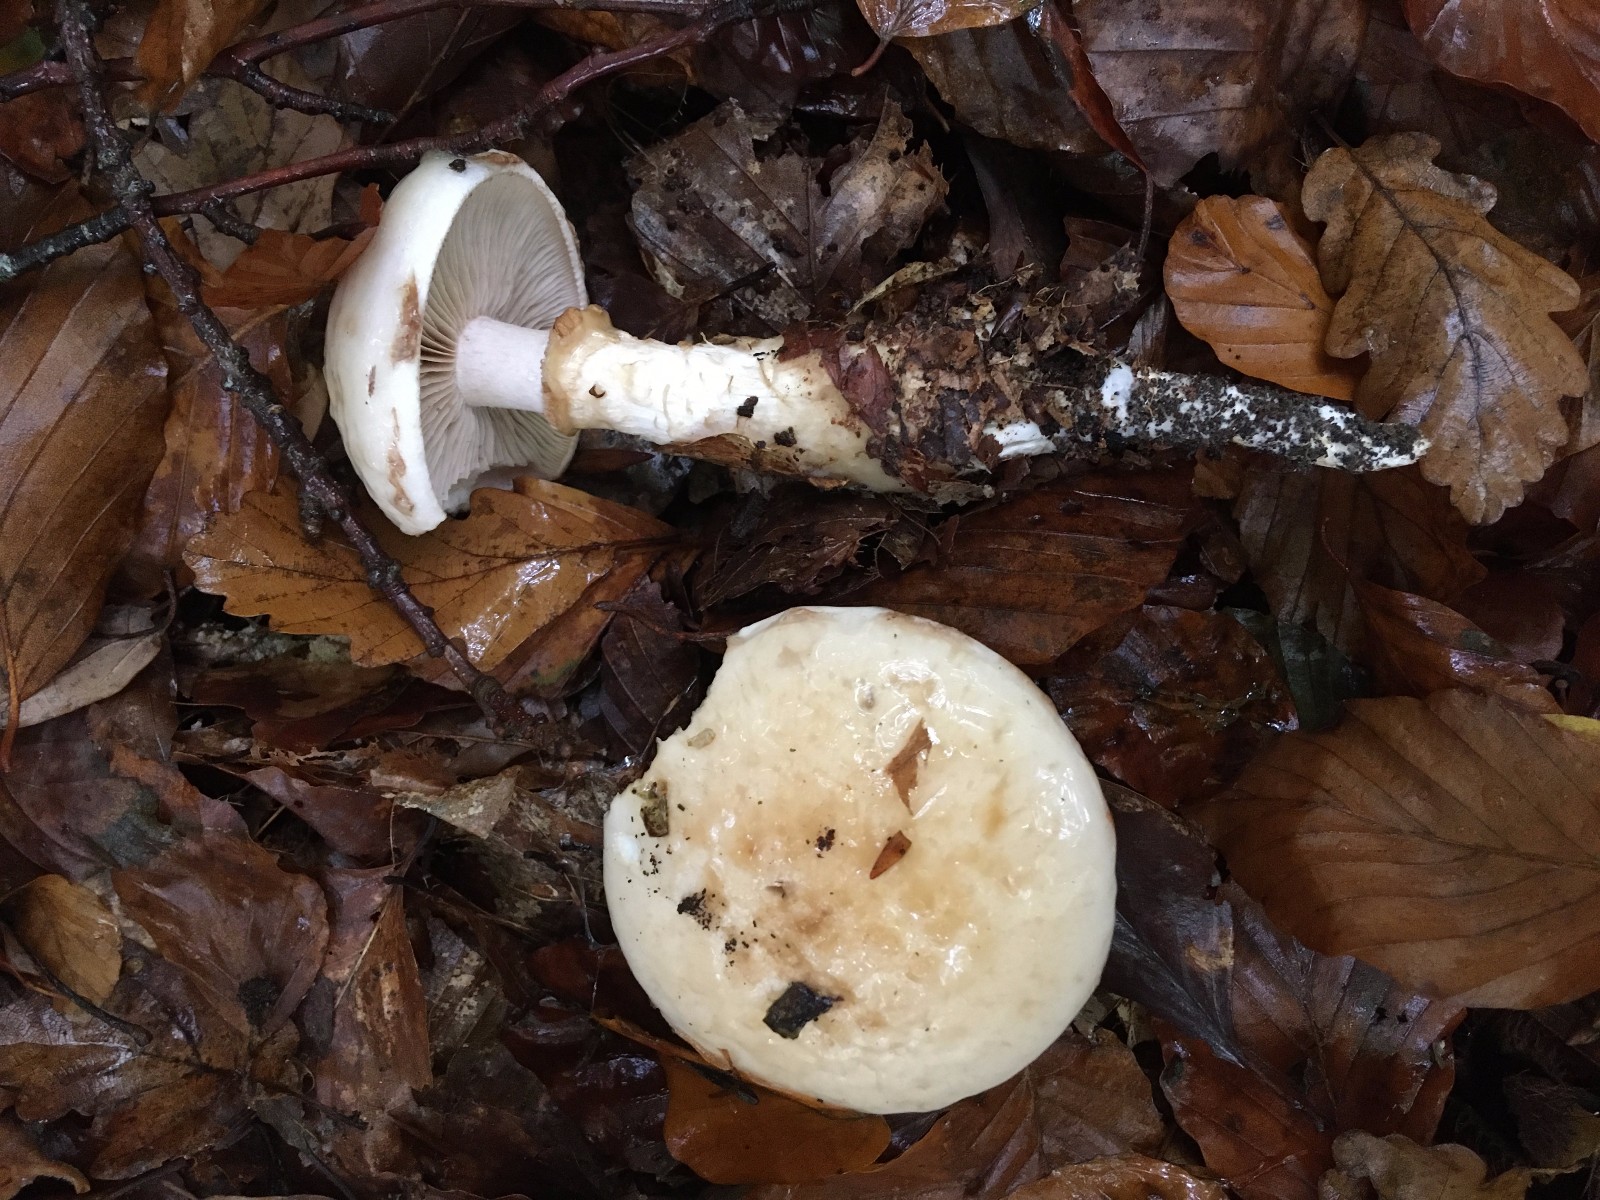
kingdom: Fungi
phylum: Basidiomycota
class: Agaricomycetes
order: Agaricales
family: Hymenogastraceae
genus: Hebeloma
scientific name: Hebeloma radicosum
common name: pælerods-tåreblad
